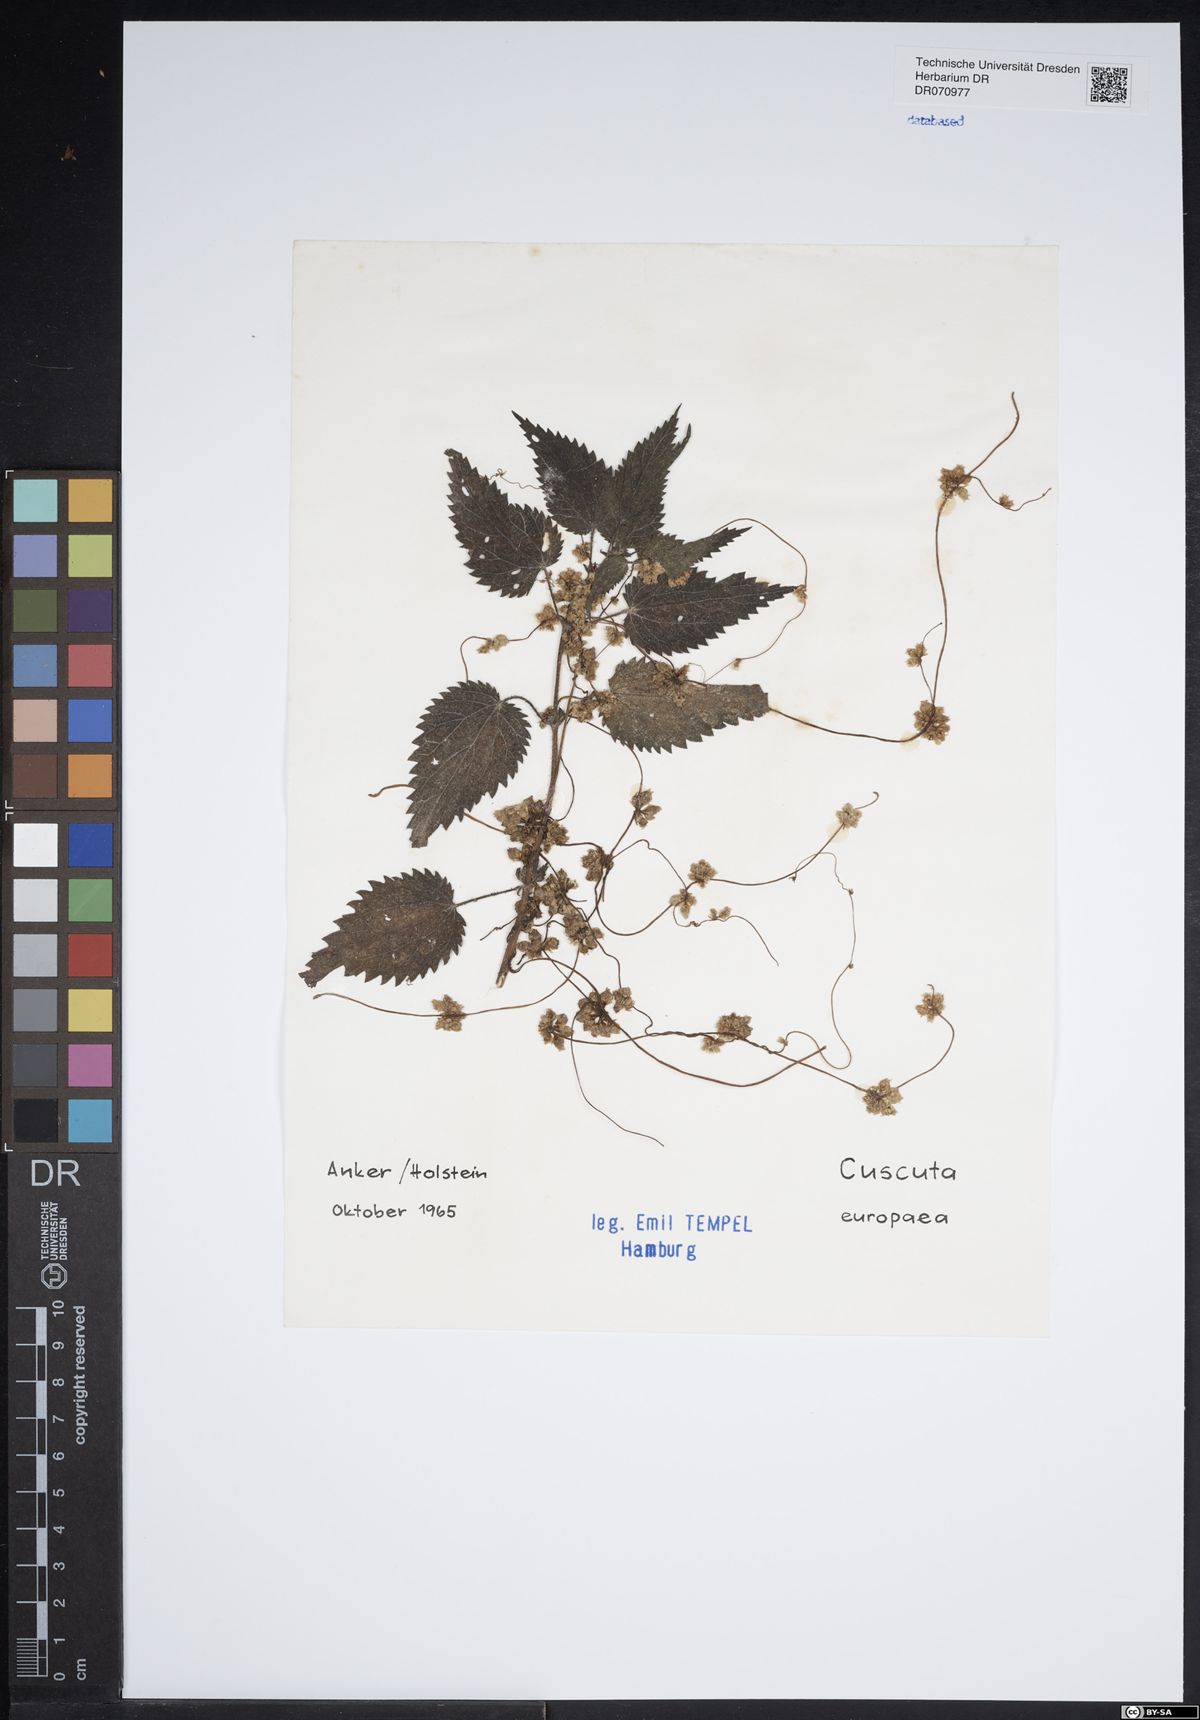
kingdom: Plantae
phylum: Tracheophyta
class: Magnoliopsida
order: Solanales
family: Convolvulaceae
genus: Cuscuta
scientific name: Cuscuta europaea
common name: Greater dodder
